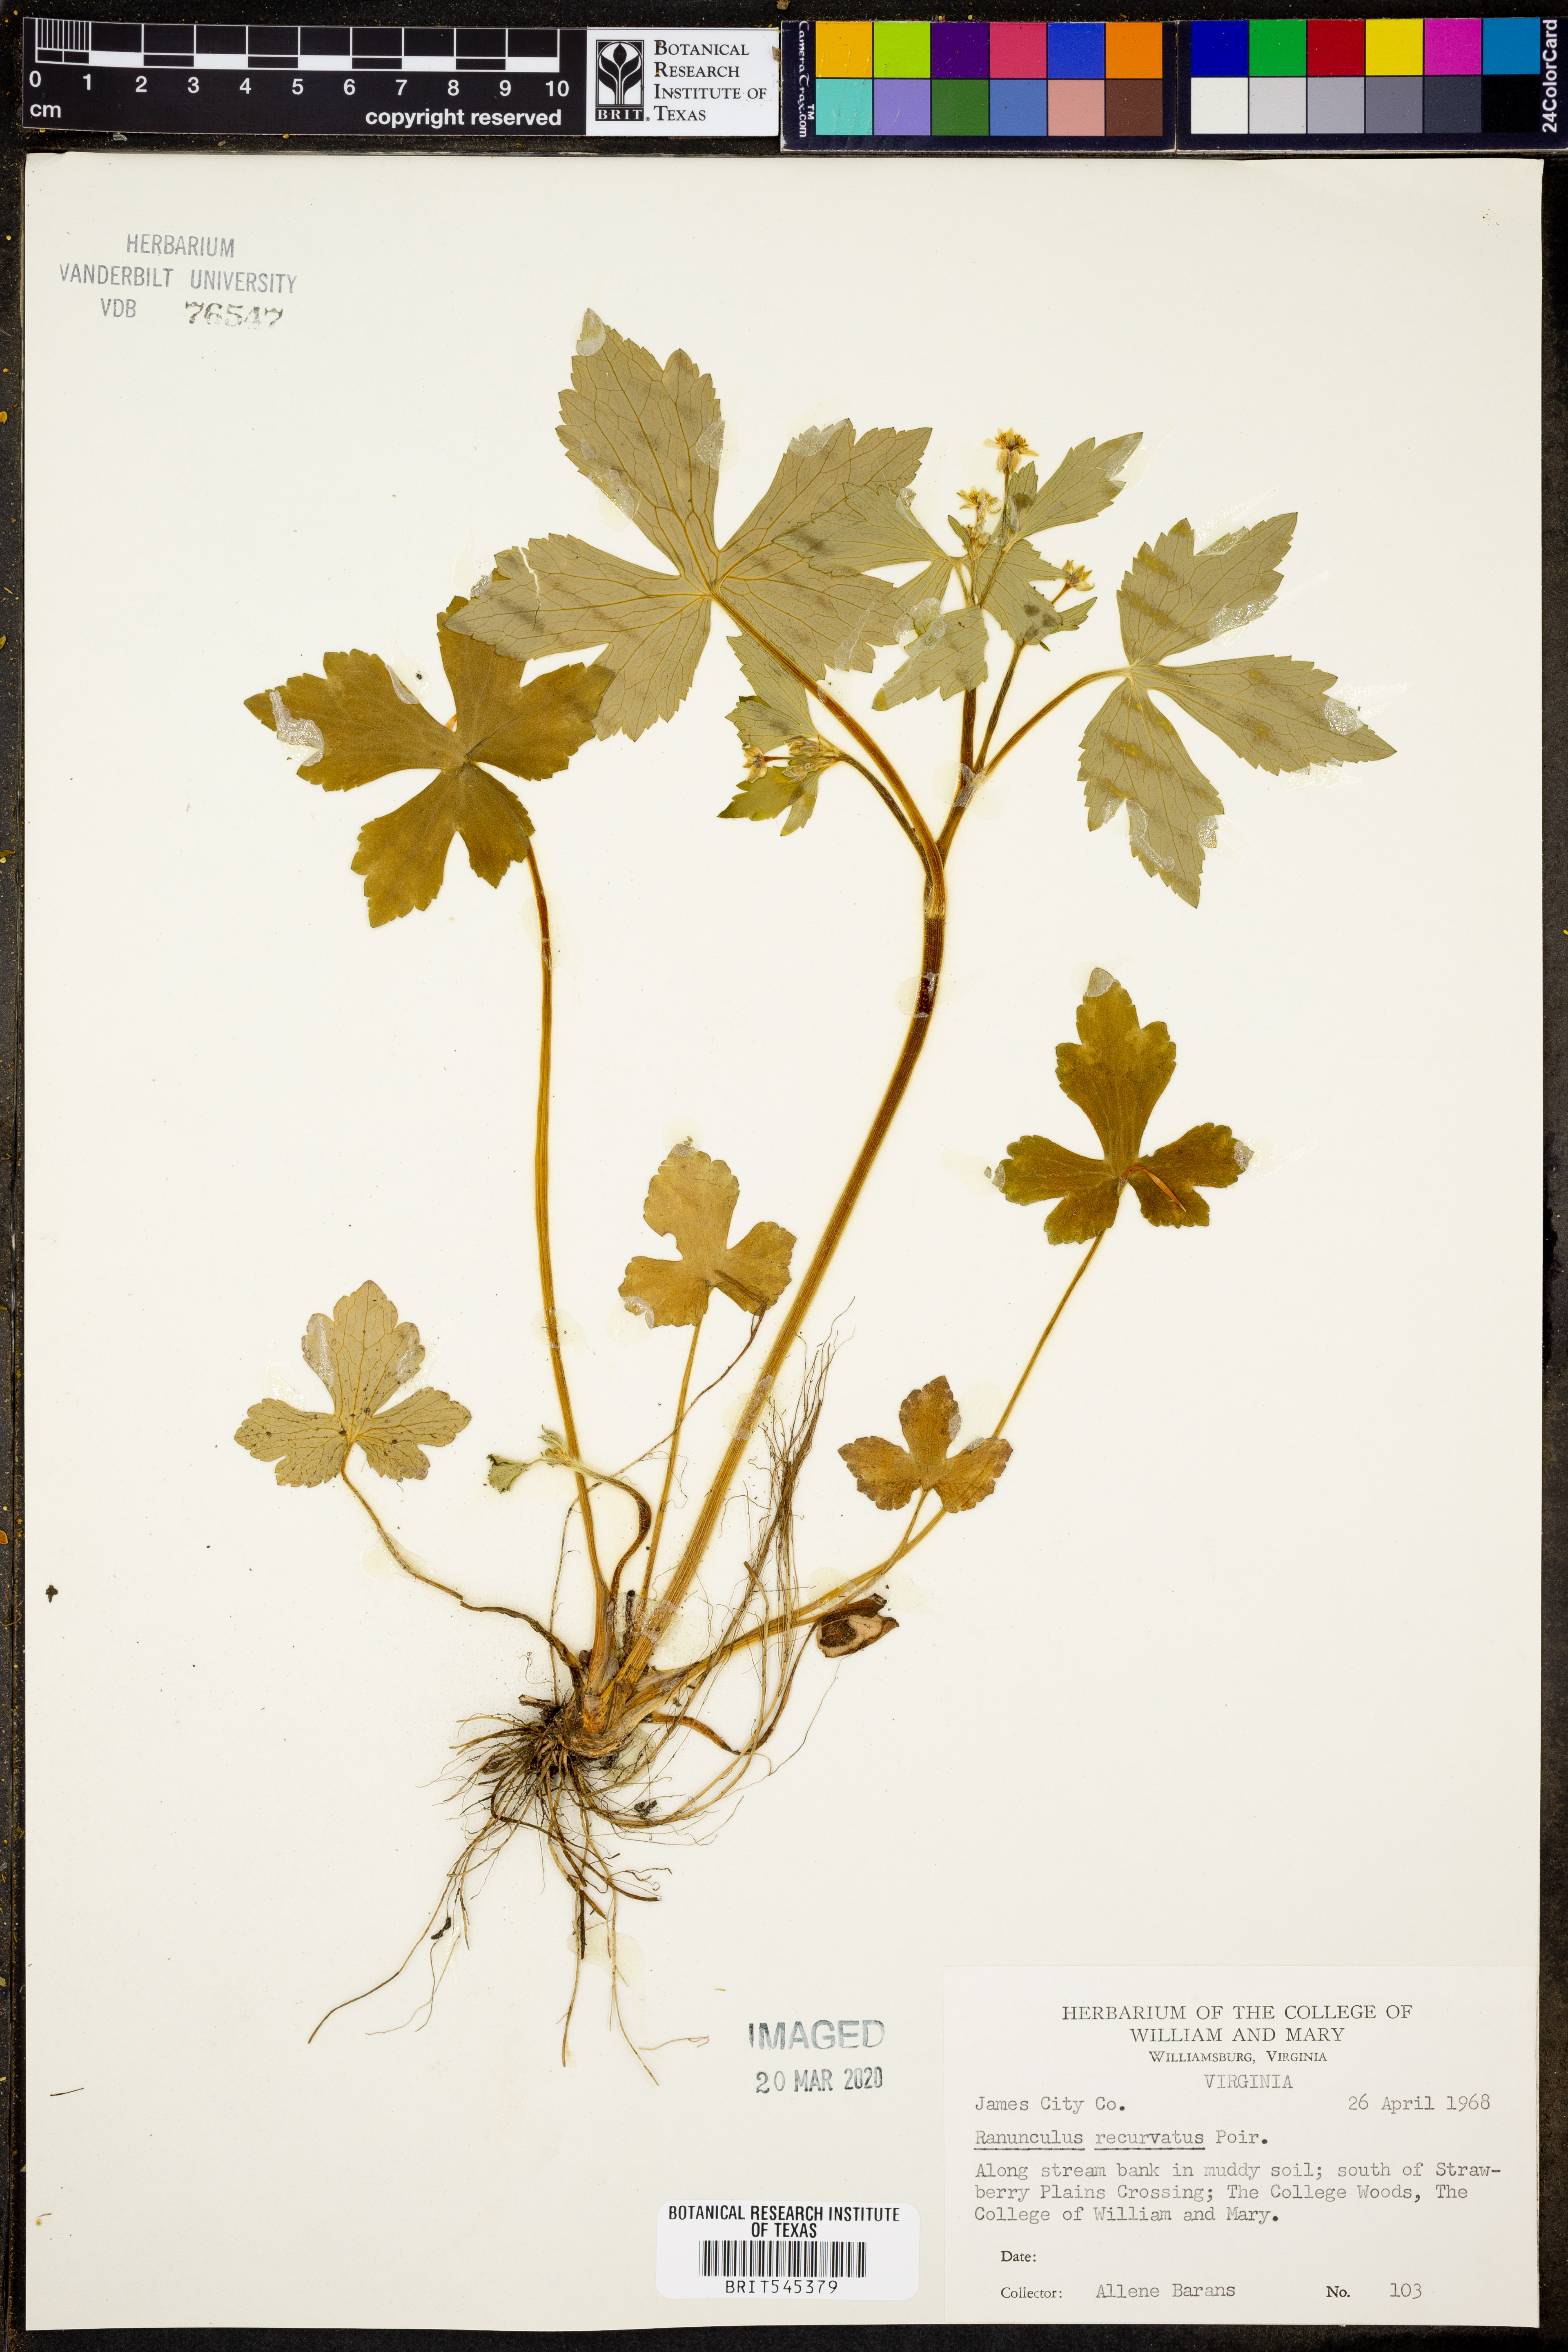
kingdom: Plantae
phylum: Tracheophyta
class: Magnoliopsida
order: Ranunculales
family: Ranunculaceae
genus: Ranunculus
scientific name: Ranunculus recurvatus
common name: Blisterwort
